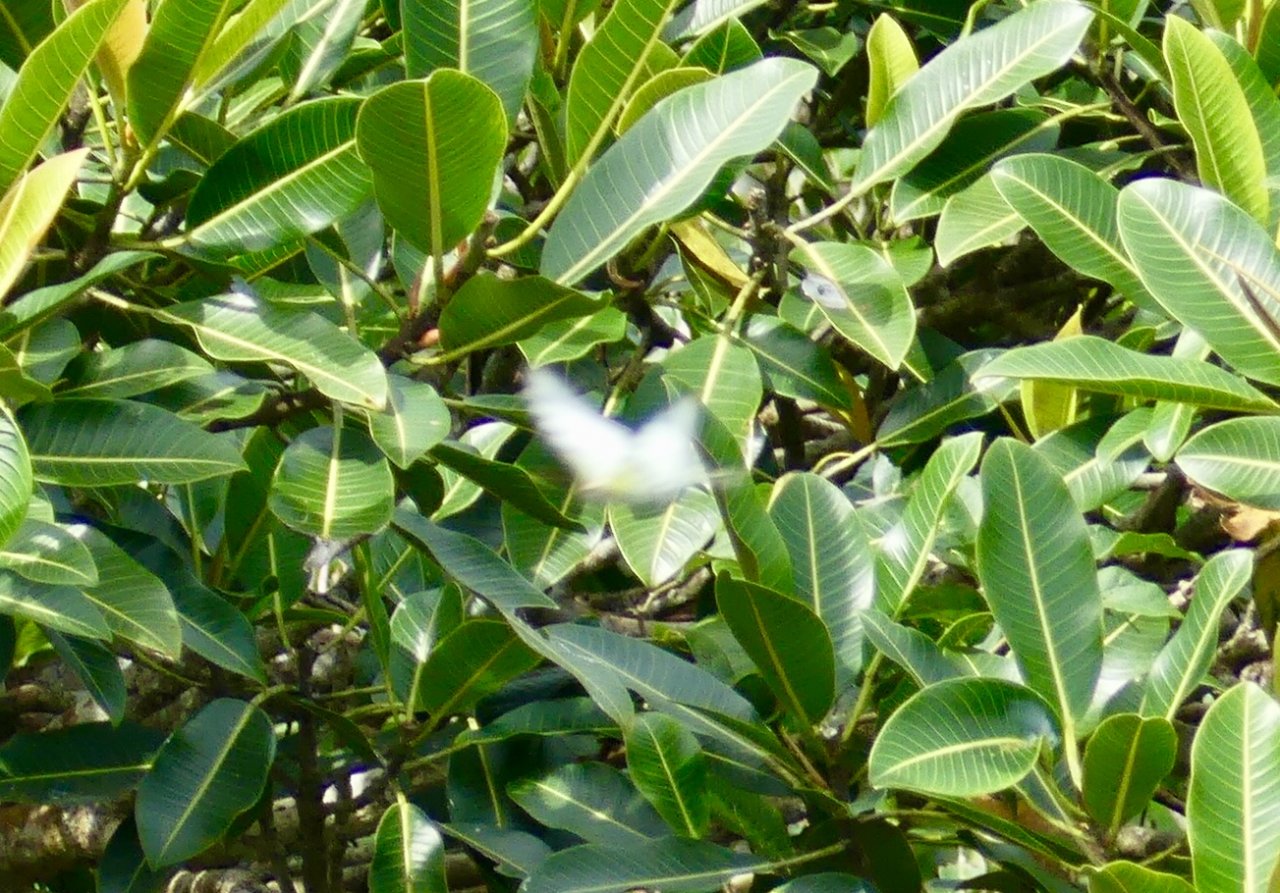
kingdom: Animalia
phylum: Arthropoda
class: Insecta
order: Lepidoptera
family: Papilionidae
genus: Eurytides
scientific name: Eurytides
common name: Great Kite-Swallowtail
